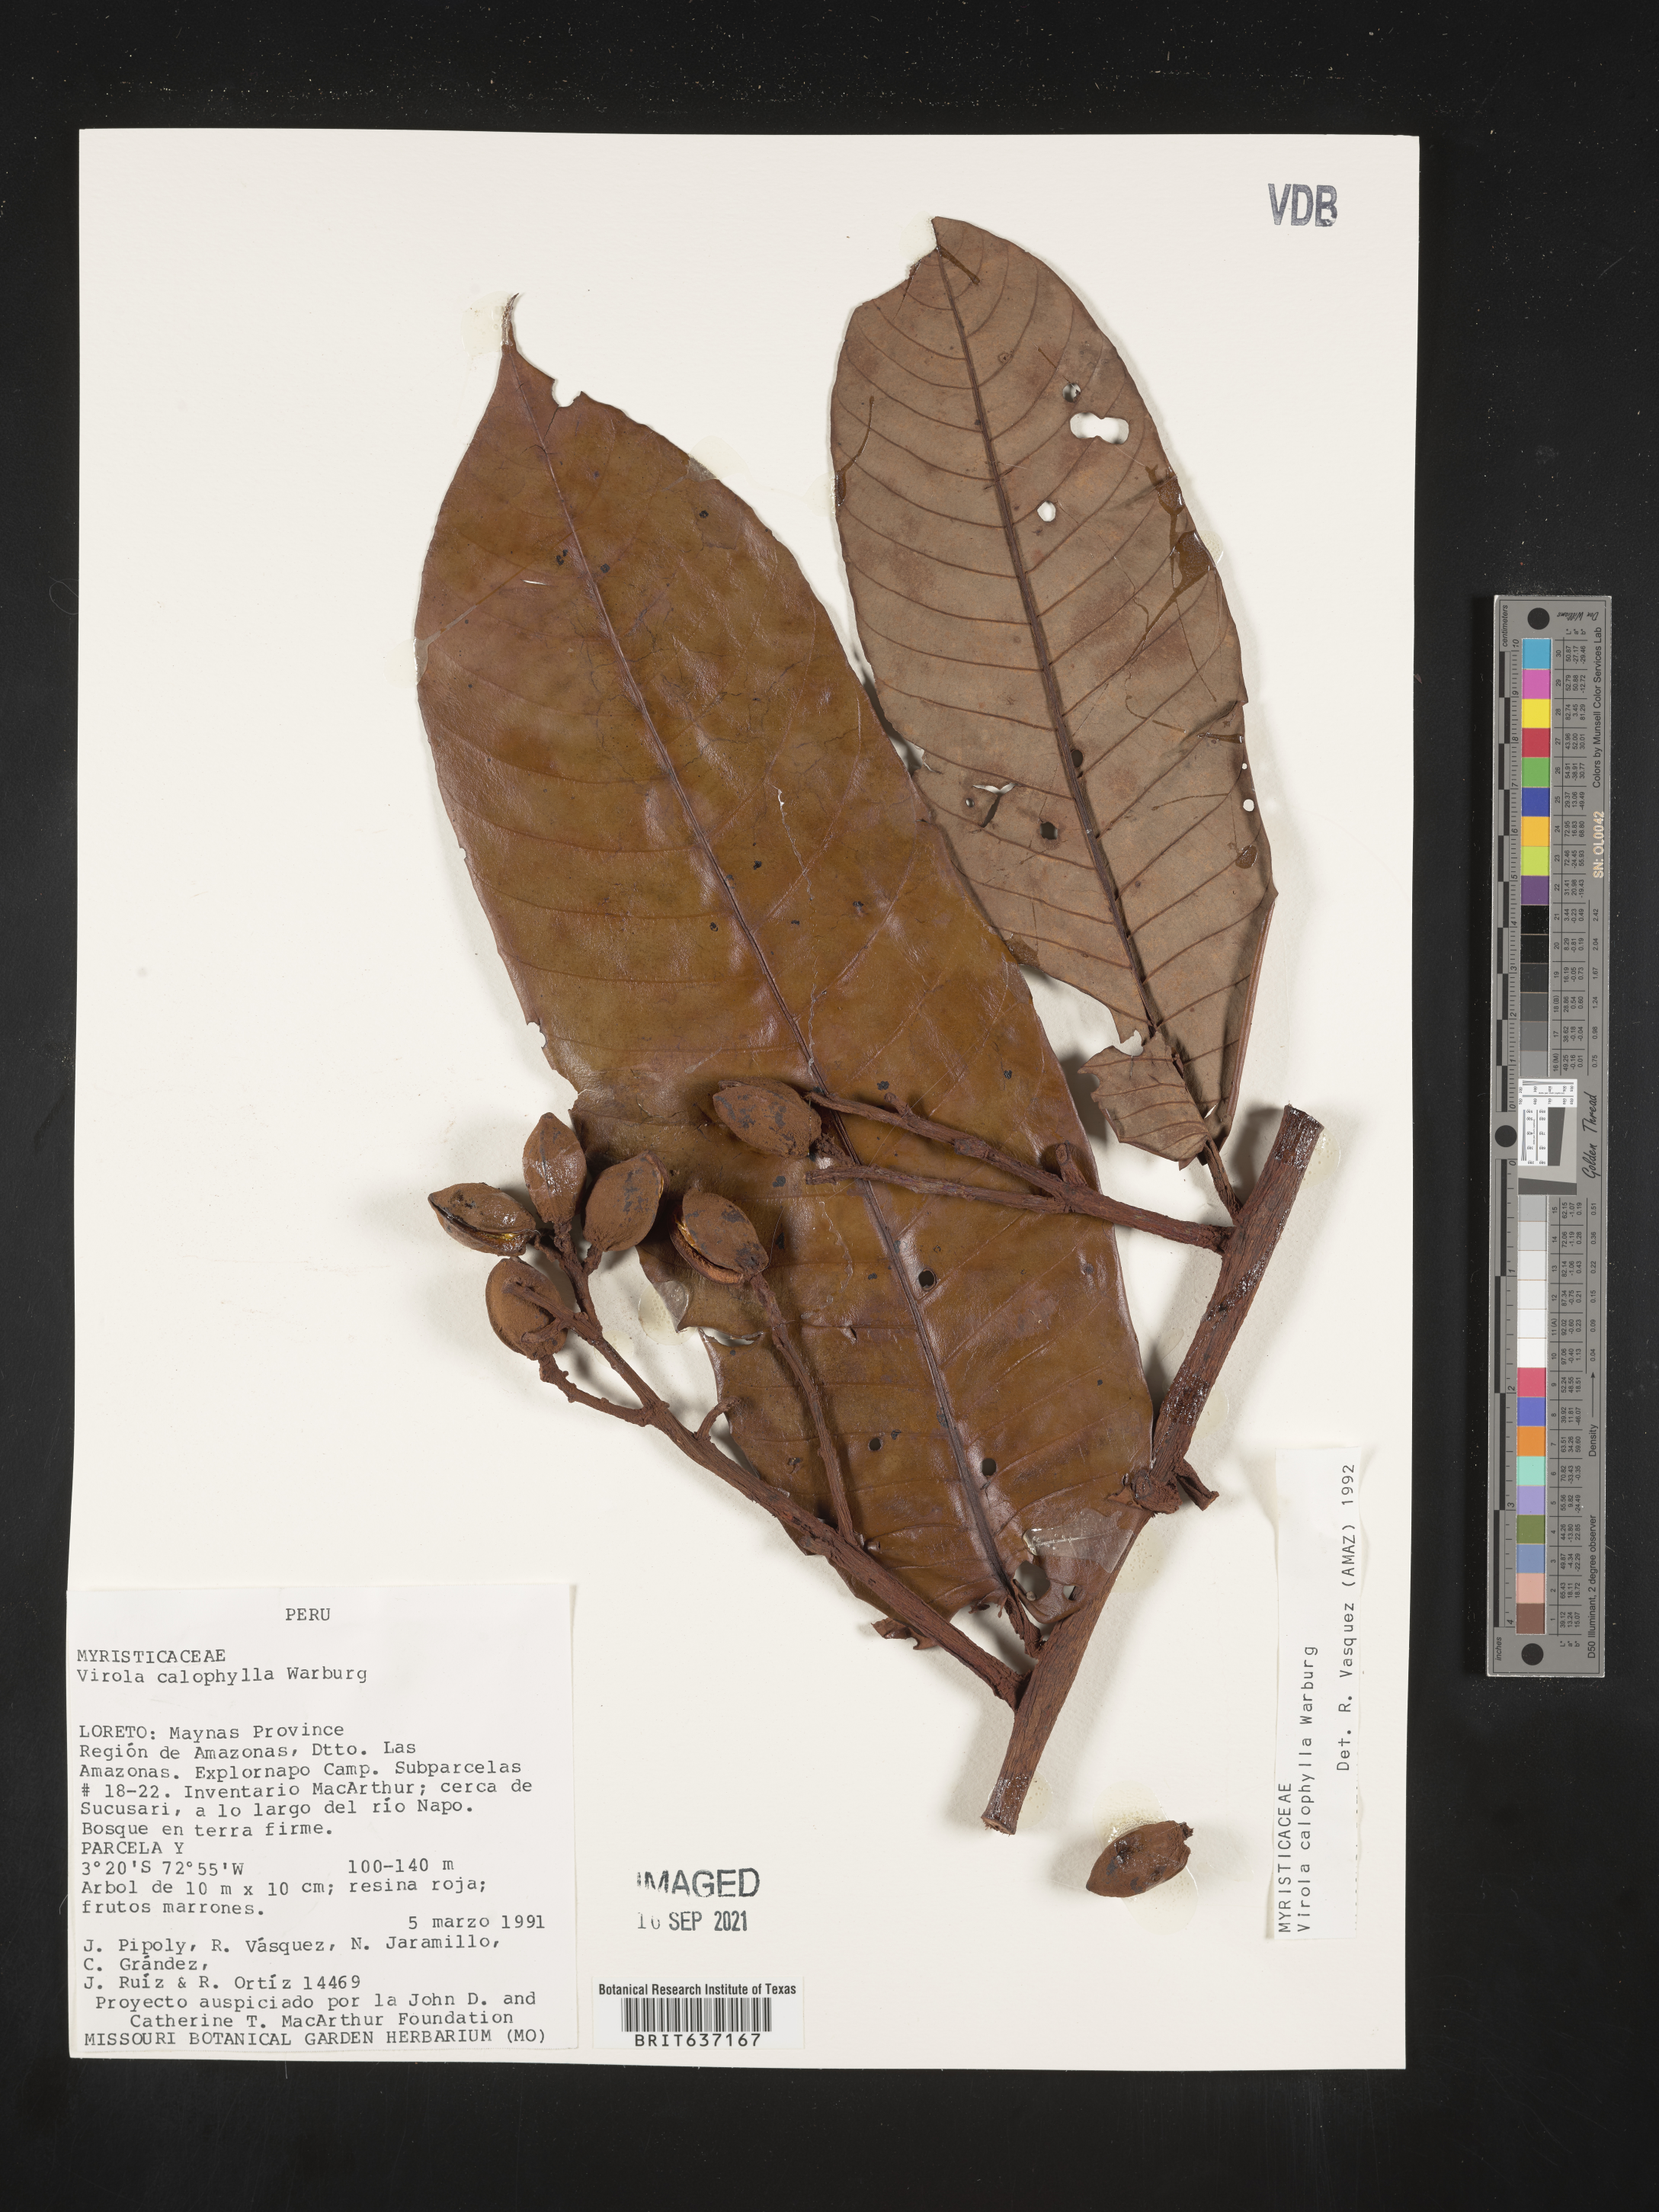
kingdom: Plantae
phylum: Tracheophyta
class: Magnoliopsida
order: Magnoliales
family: Myristicaceae
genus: Virola
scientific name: Virola
